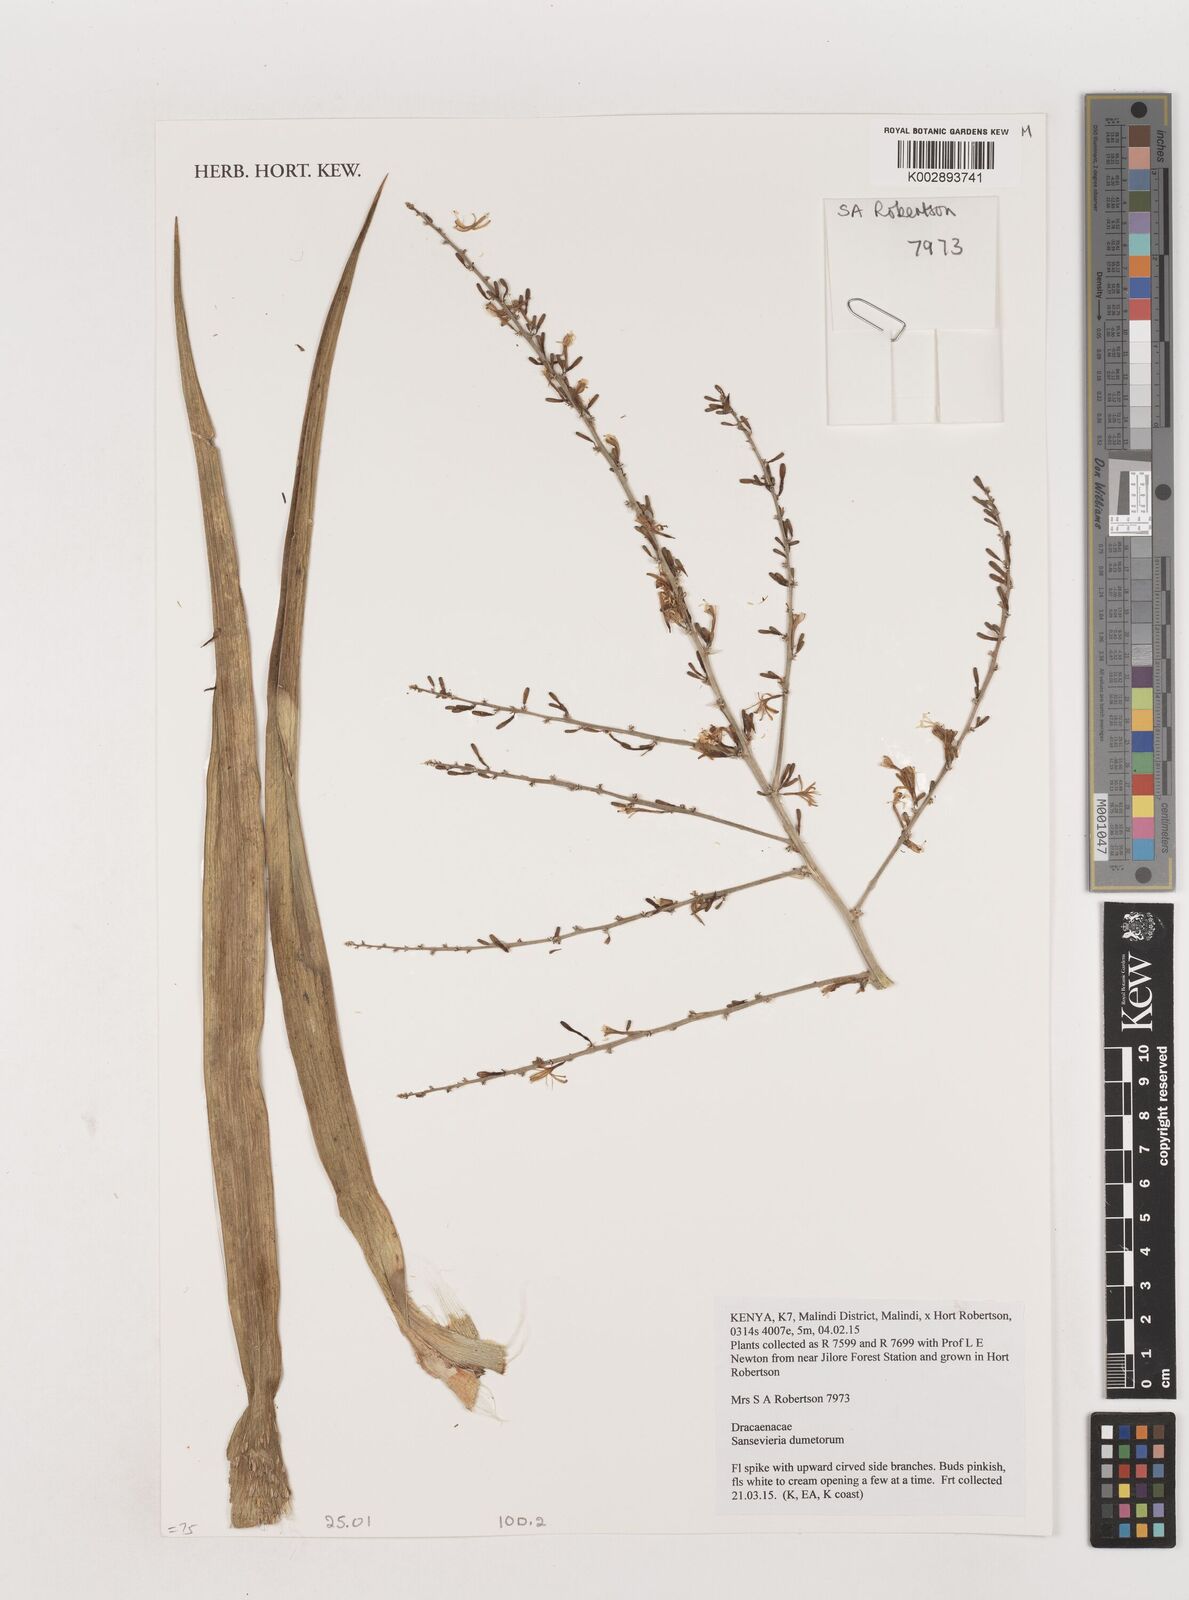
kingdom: Plantae
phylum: Tracheophyta
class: Liliopsida
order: Asparagales
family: Asparagaceae
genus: Dracaena
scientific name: Dracaena
